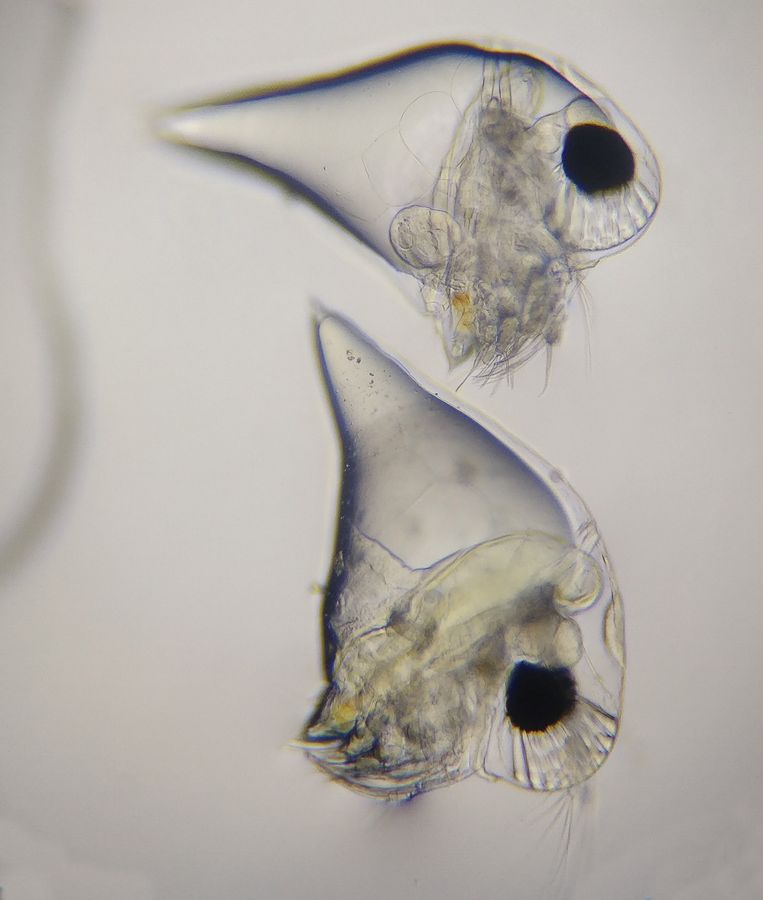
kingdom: Animalia
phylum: Arthropoda
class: Branchiopoda
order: Diplostraca
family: Podonidae
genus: Evadne
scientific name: Evadne nordmanni
